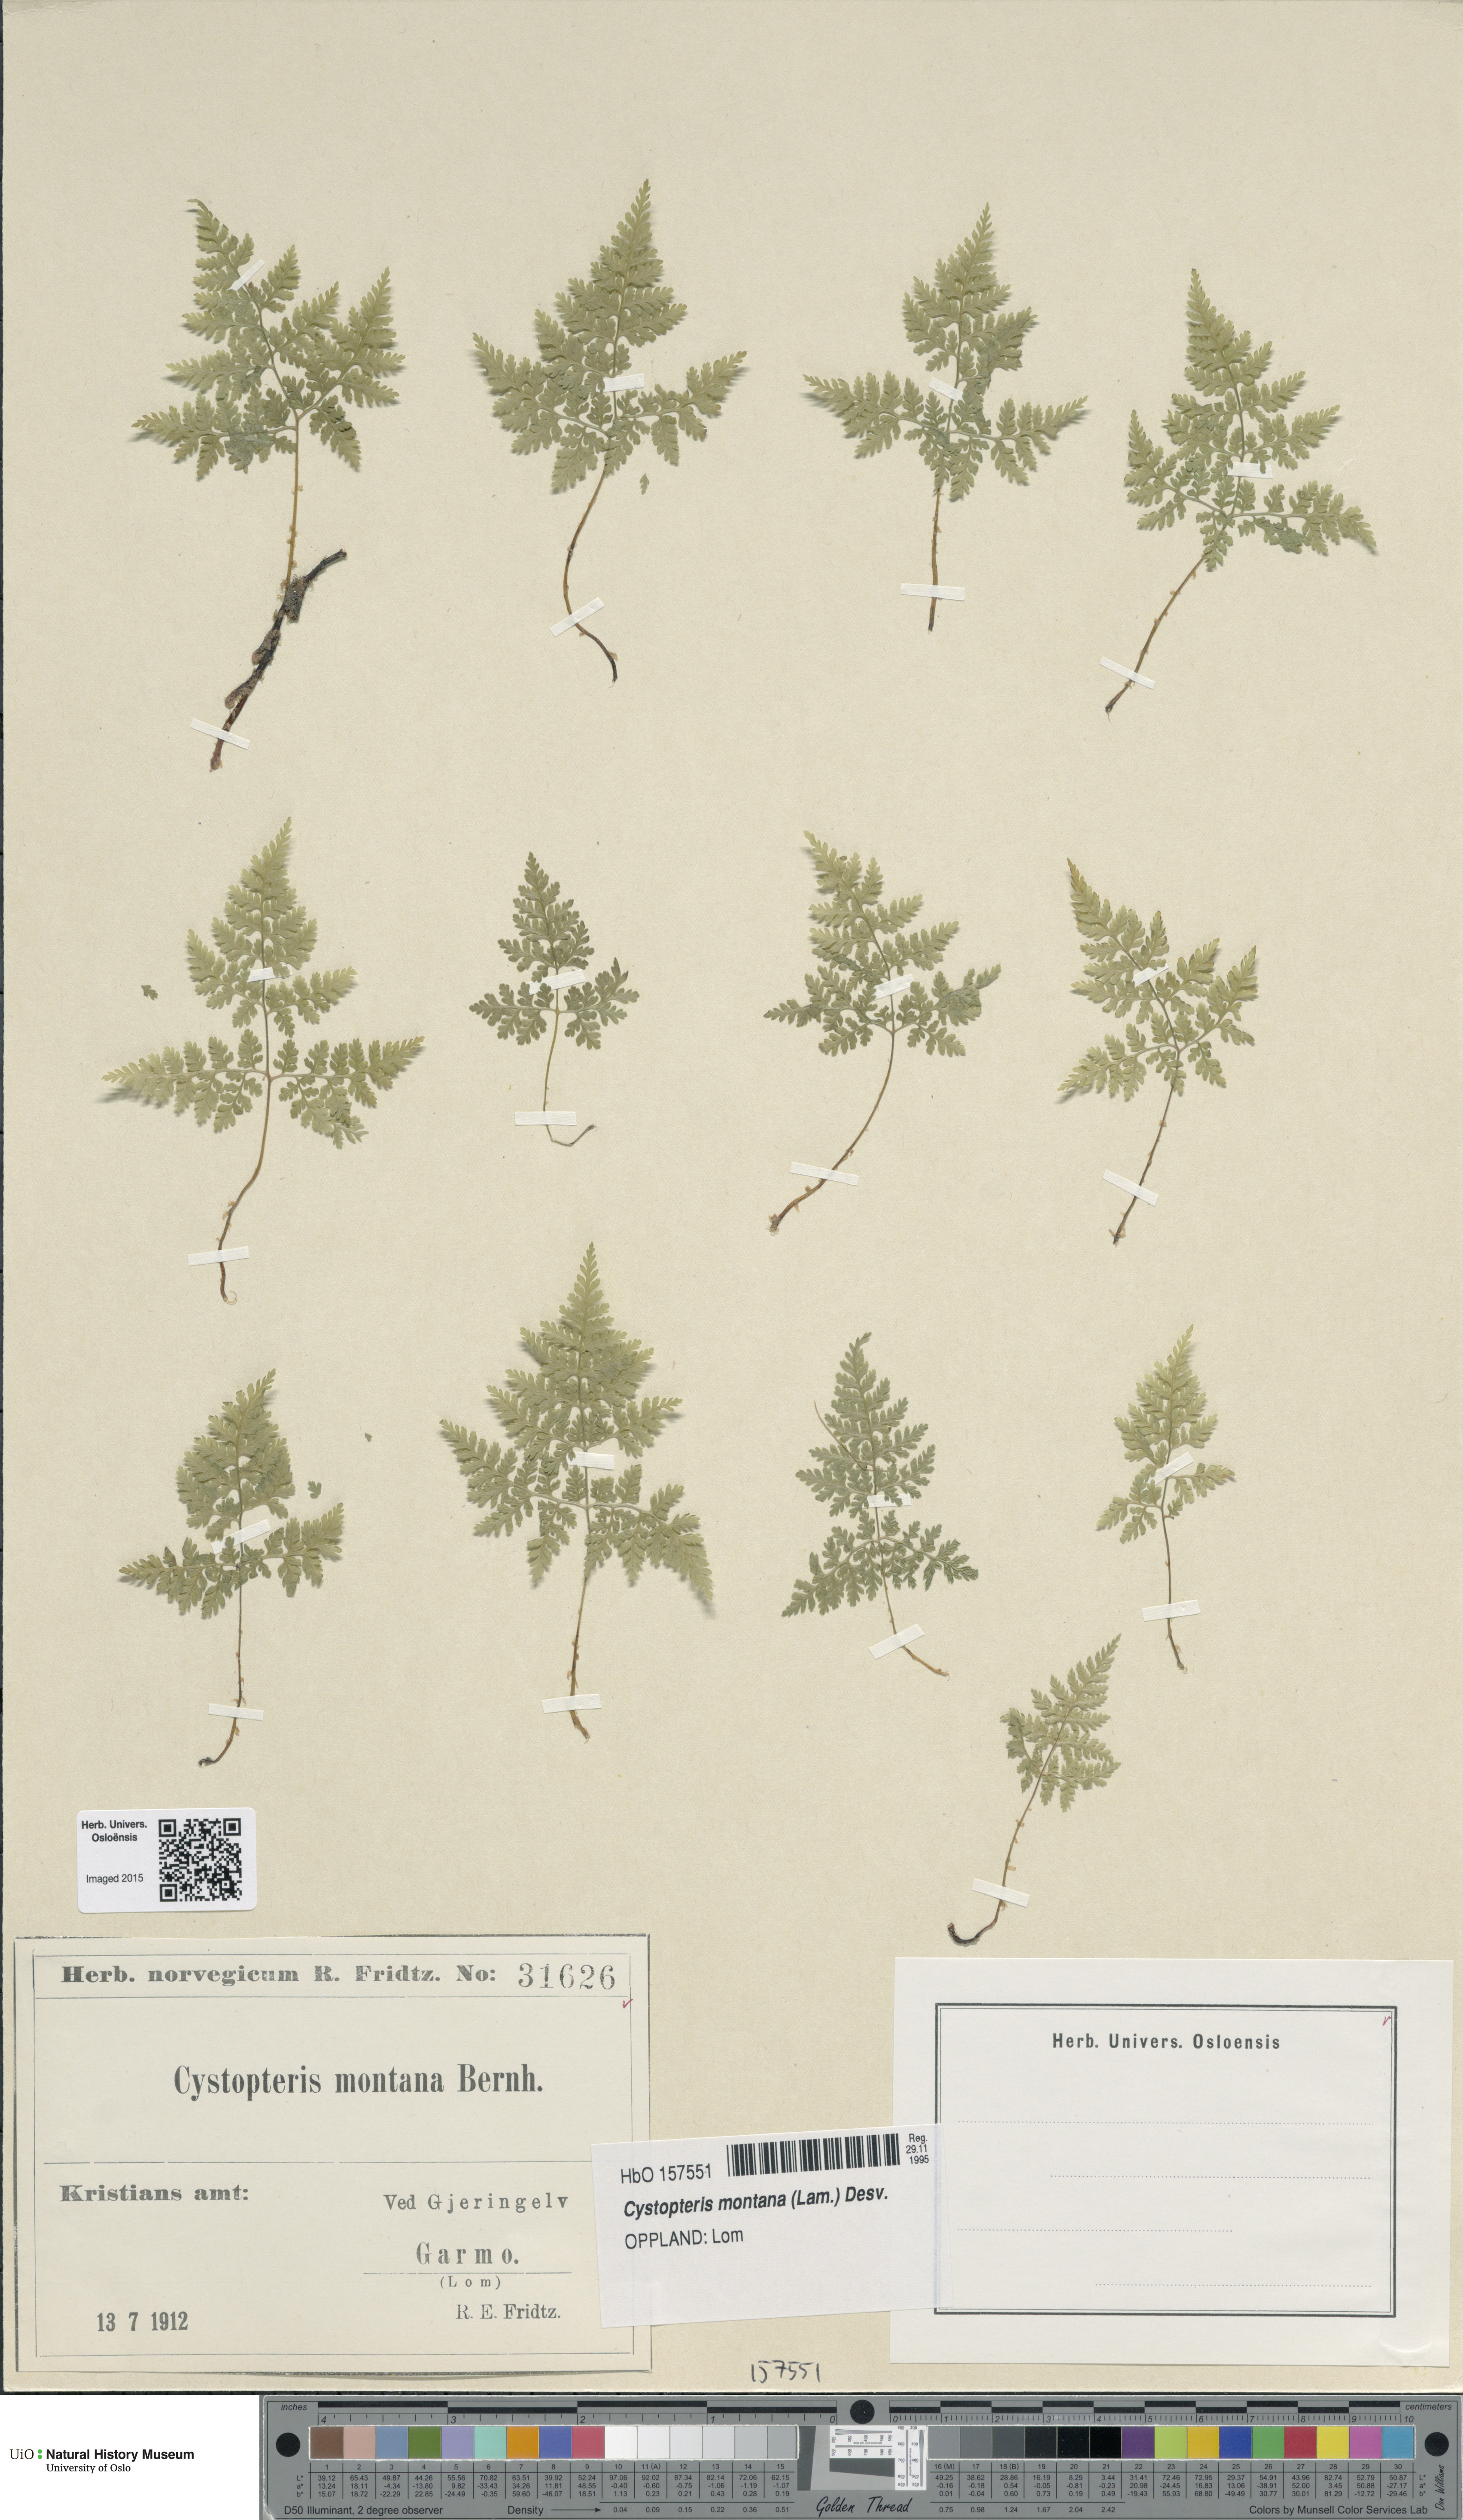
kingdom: Plantae
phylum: Tracheophyta
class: Polypodiopsida
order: Polypodiales
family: Cystopteridaceae
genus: Cystopteris
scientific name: Cystopteris montana
